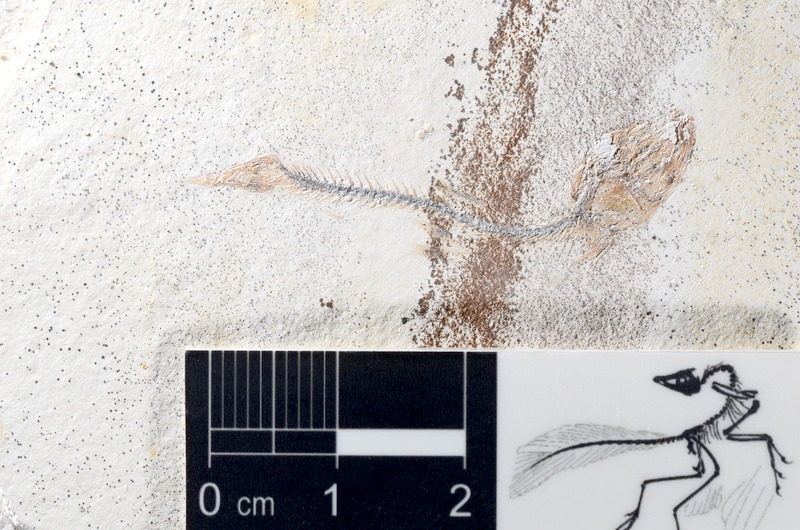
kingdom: Animalia
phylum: Chordata
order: Salmoniformes
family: Orthogonikleithridae
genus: Orthogonikleithrus
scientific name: Orthogonikleithrus hoelli
